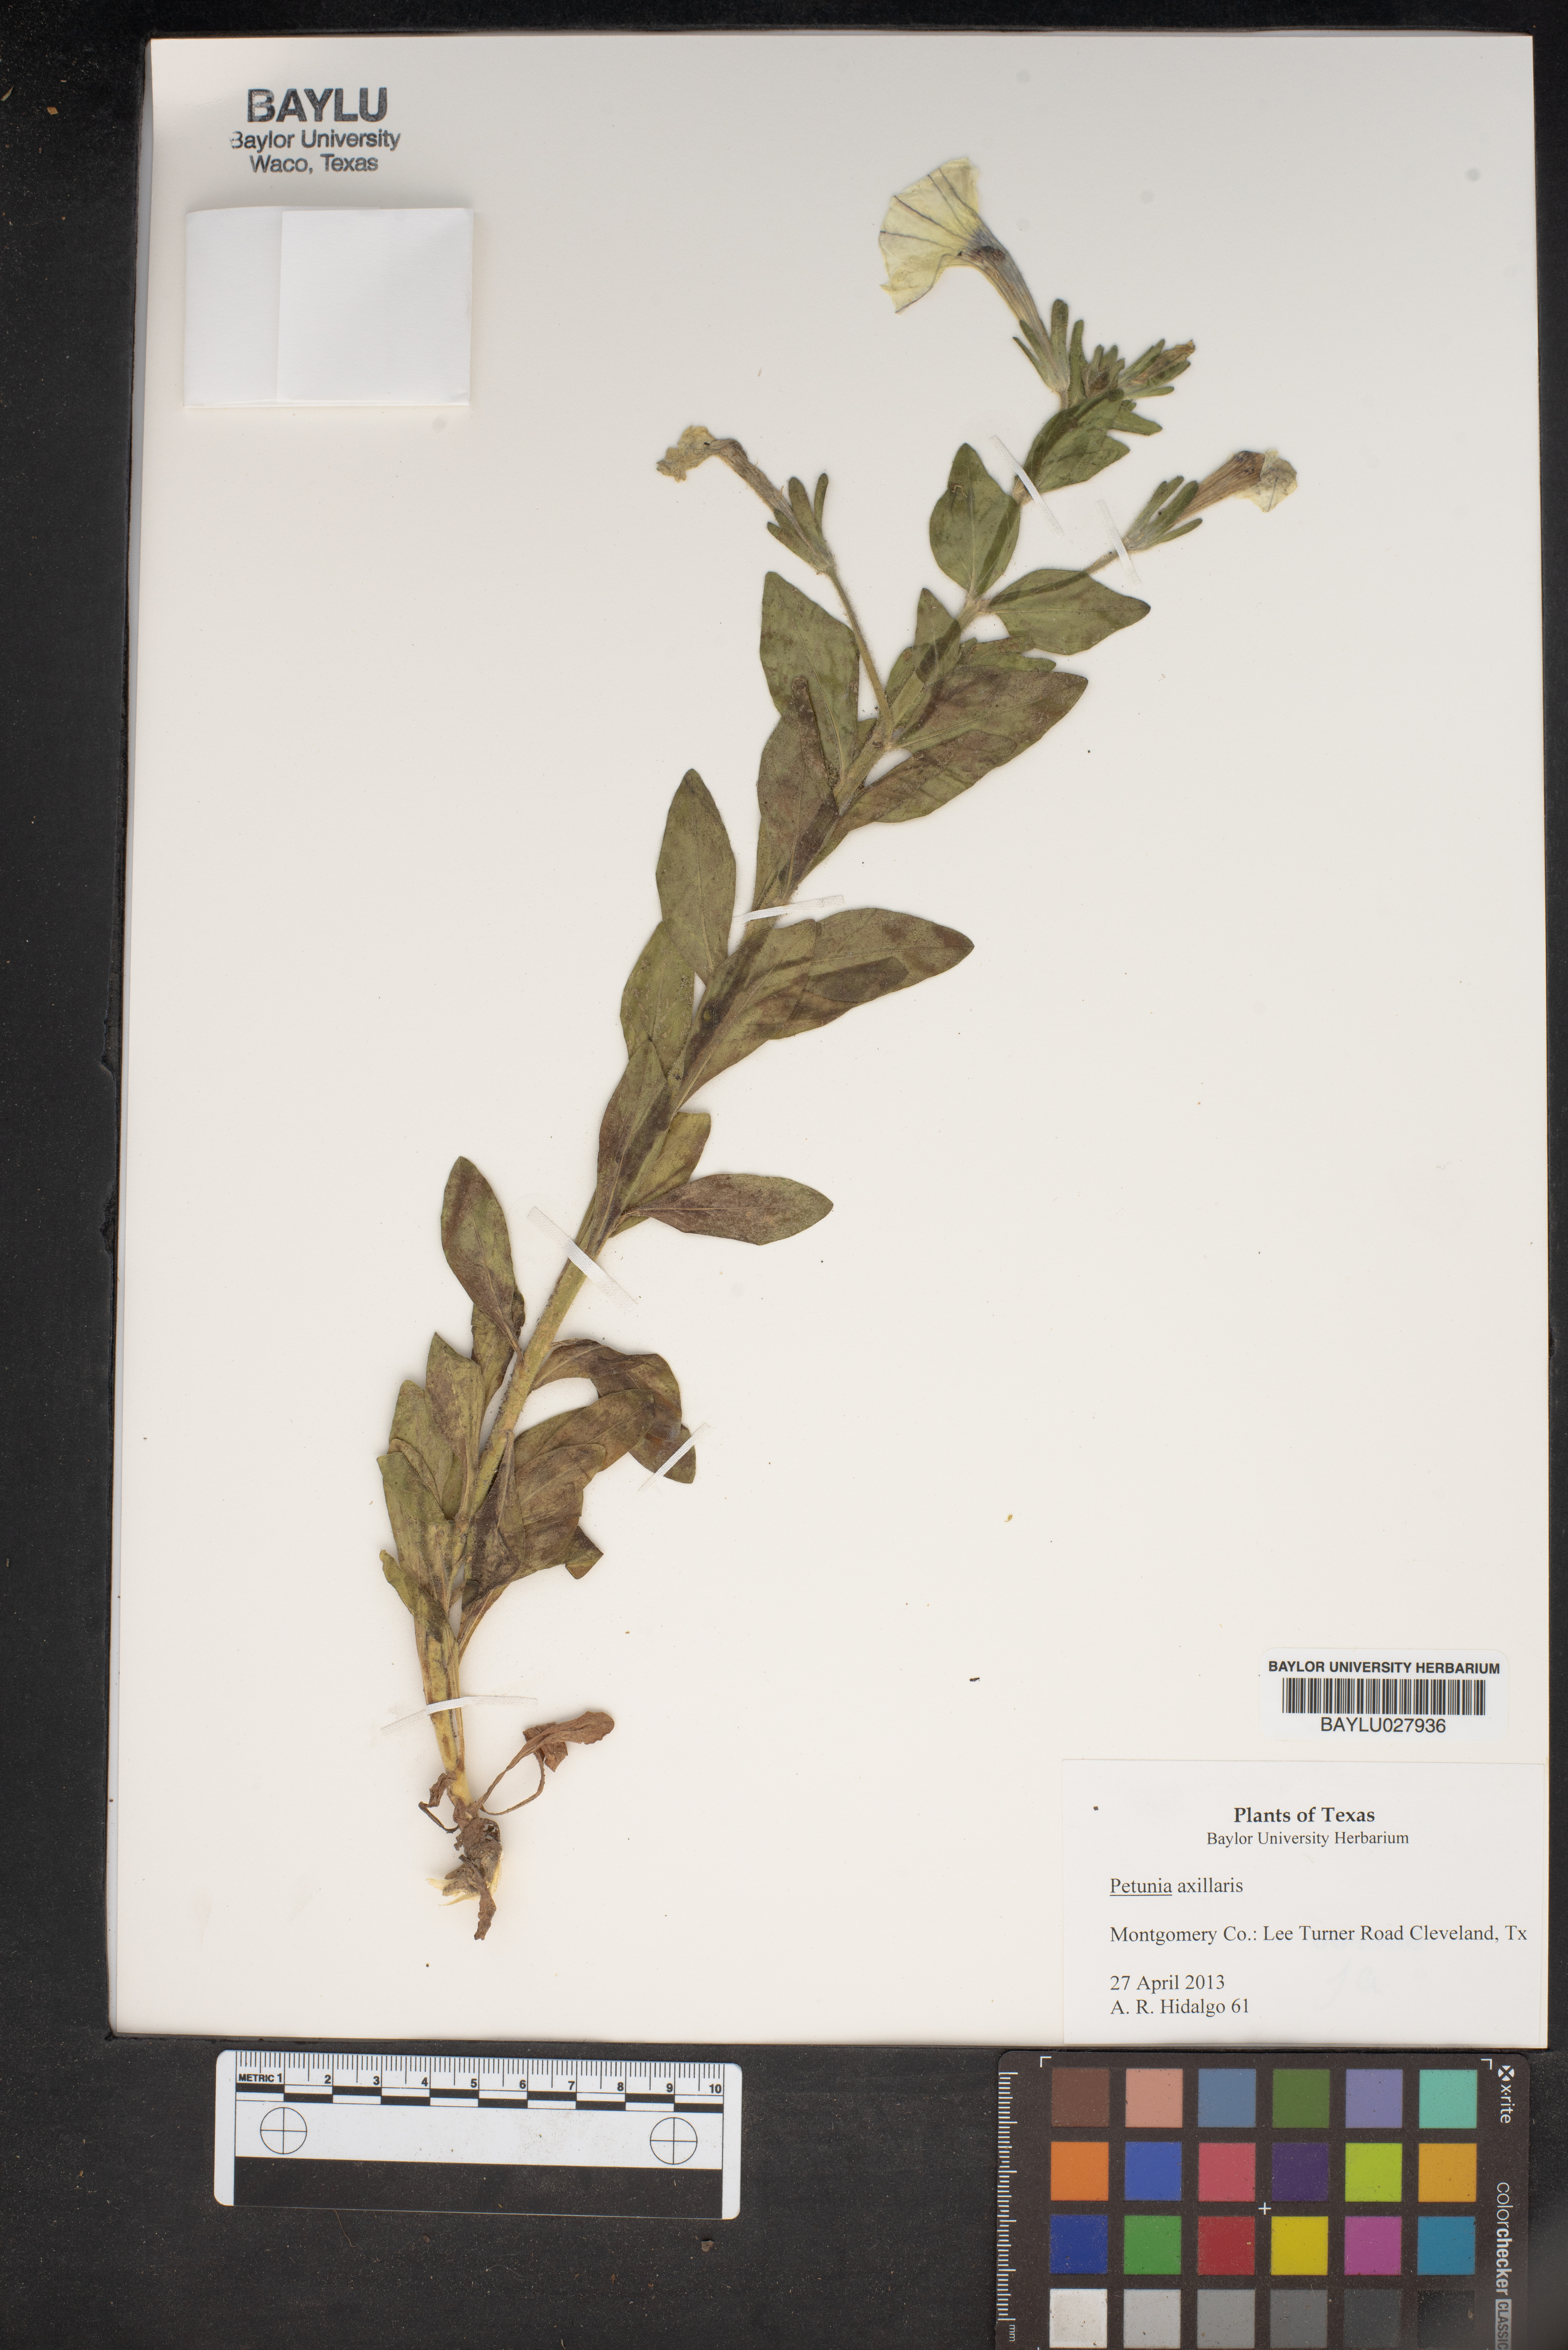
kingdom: Plantae
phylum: Tracheophyta
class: Magnoliopsida
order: Solanales
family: Solanaceae
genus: Petunia
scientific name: Petunia axillaris
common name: Large white petunia
